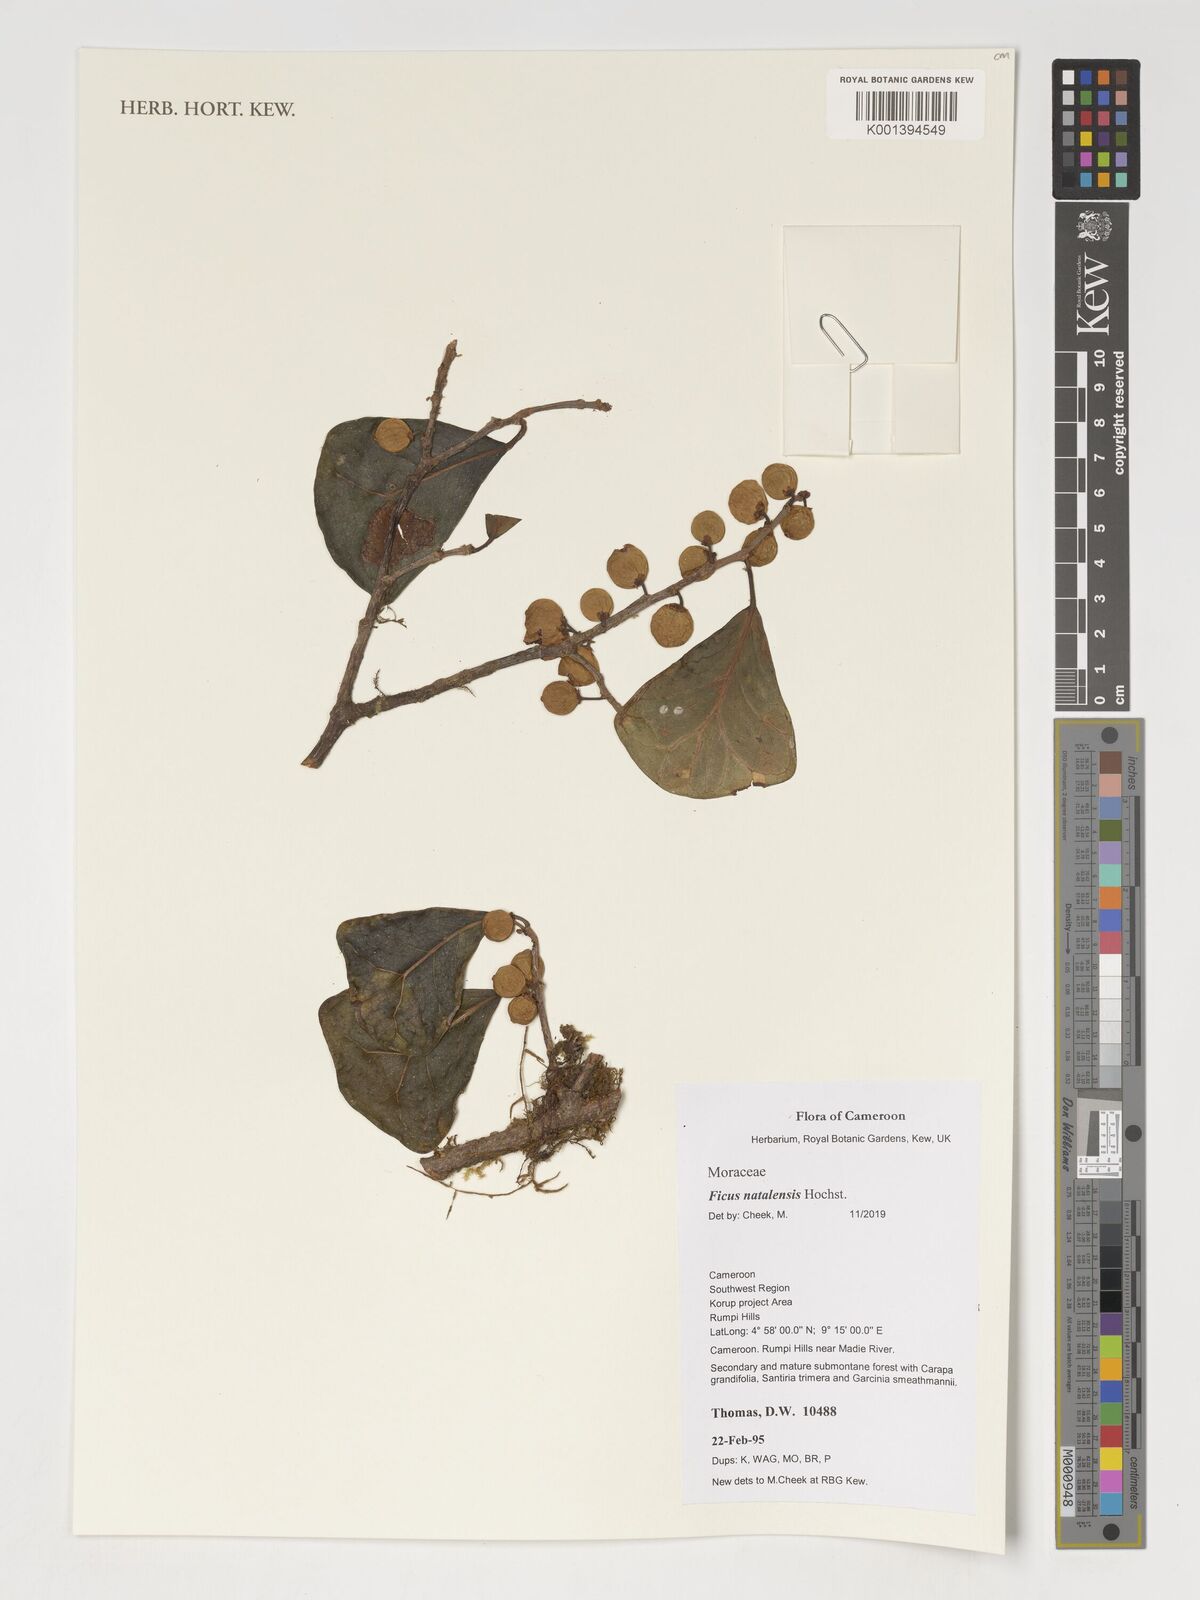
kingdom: Plantae
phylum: Tracheophyta
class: Magnoliopsida
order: Rosales
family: Moraceae
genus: Ficus
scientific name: Ficus natalensis
